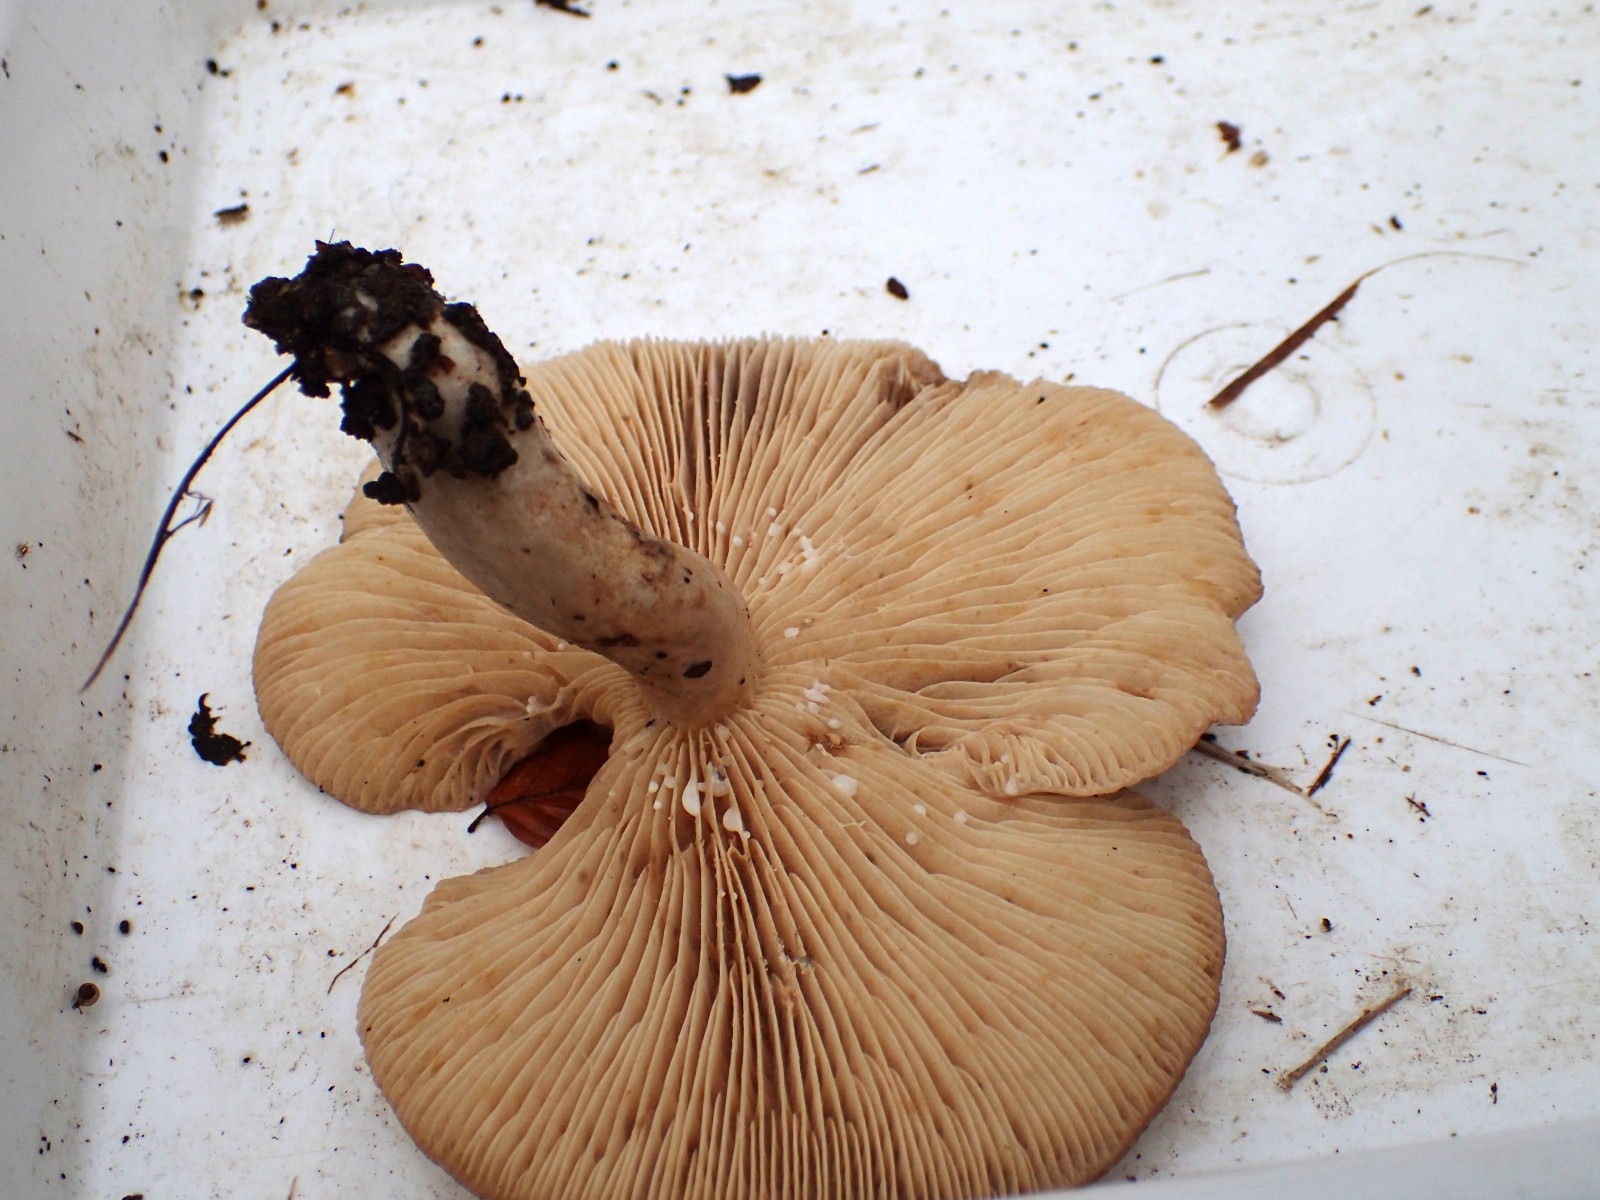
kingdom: Fungi
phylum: Basidiomycota
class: Agaricomycetes
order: Russulales
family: Russulaceae
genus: Lactarius
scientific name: Lactarius quietus
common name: ege-mælkehat
